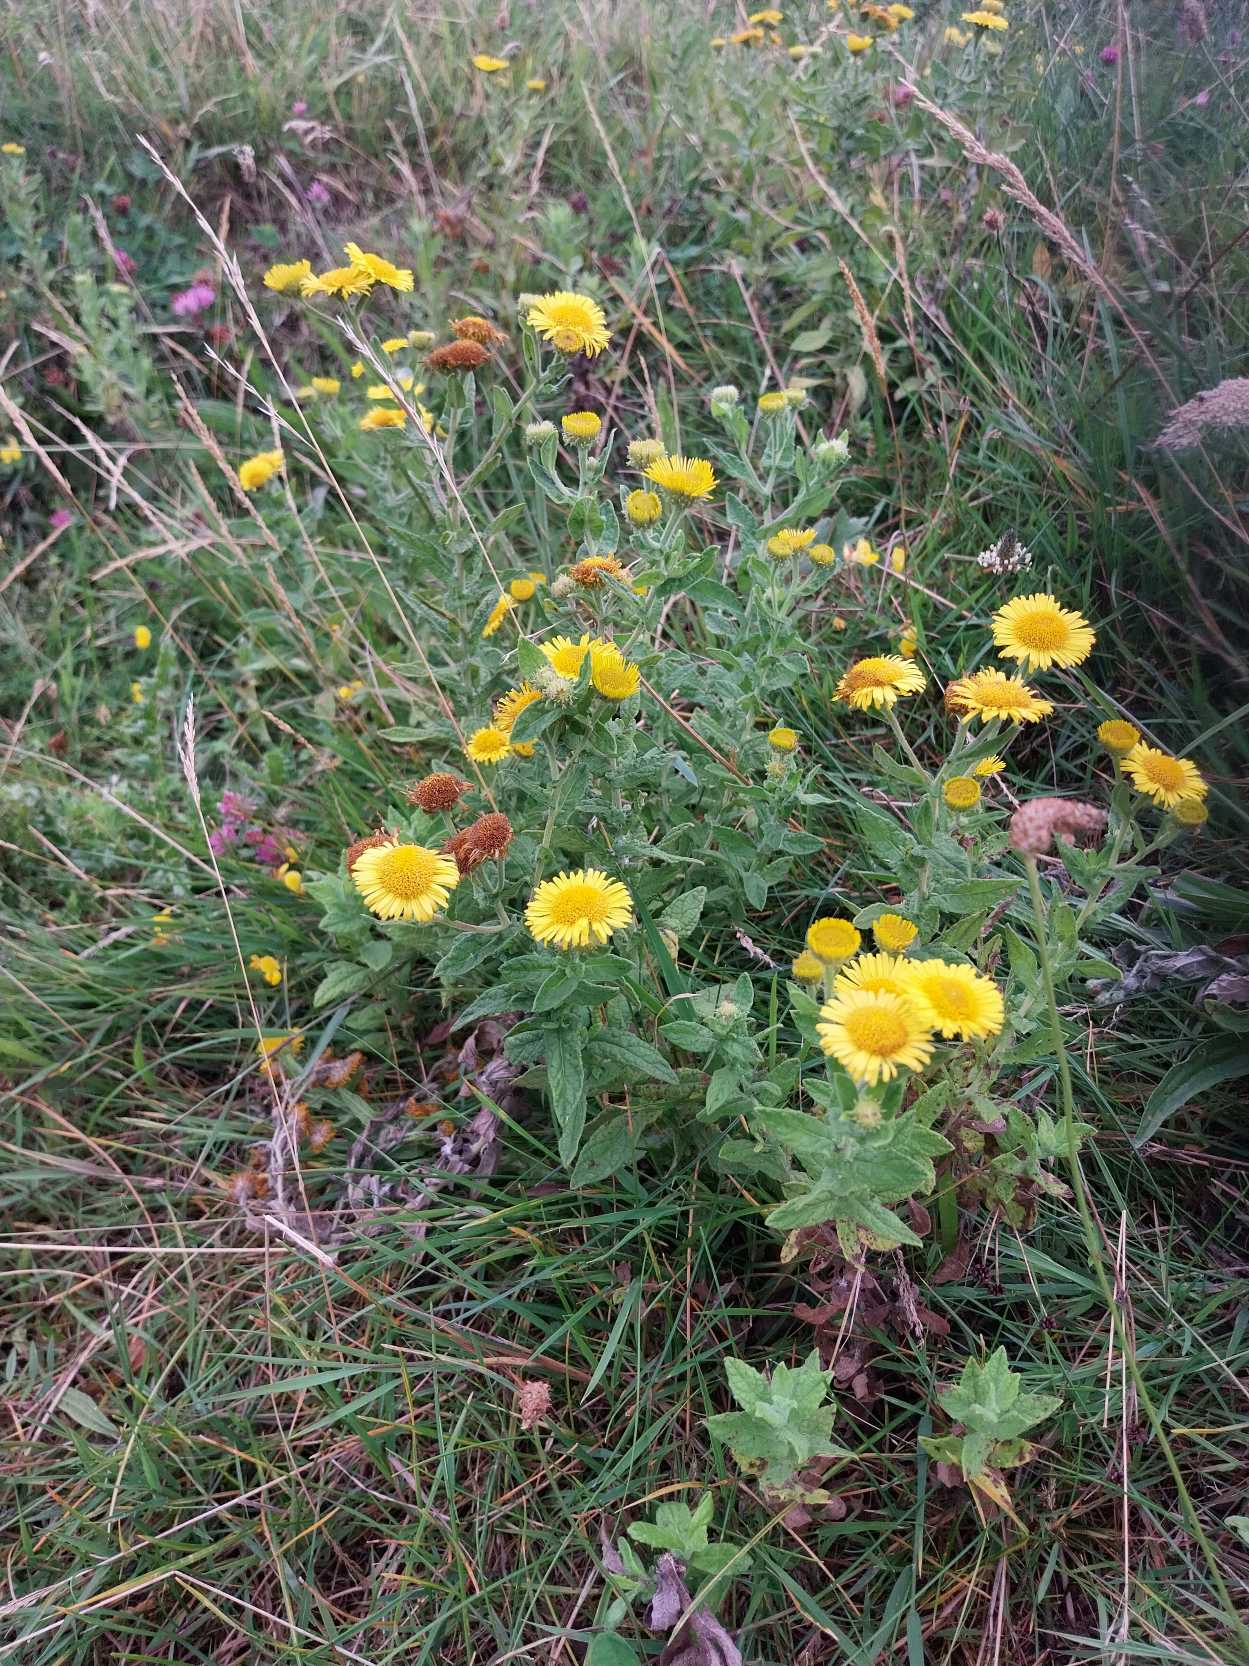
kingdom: Plantae
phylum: Tracheophyta
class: Magnoliopsida
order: Asterales
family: Asteraceae
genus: Pulicaria
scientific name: Pulicaria dysenterica
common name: Strand-loppeurt
